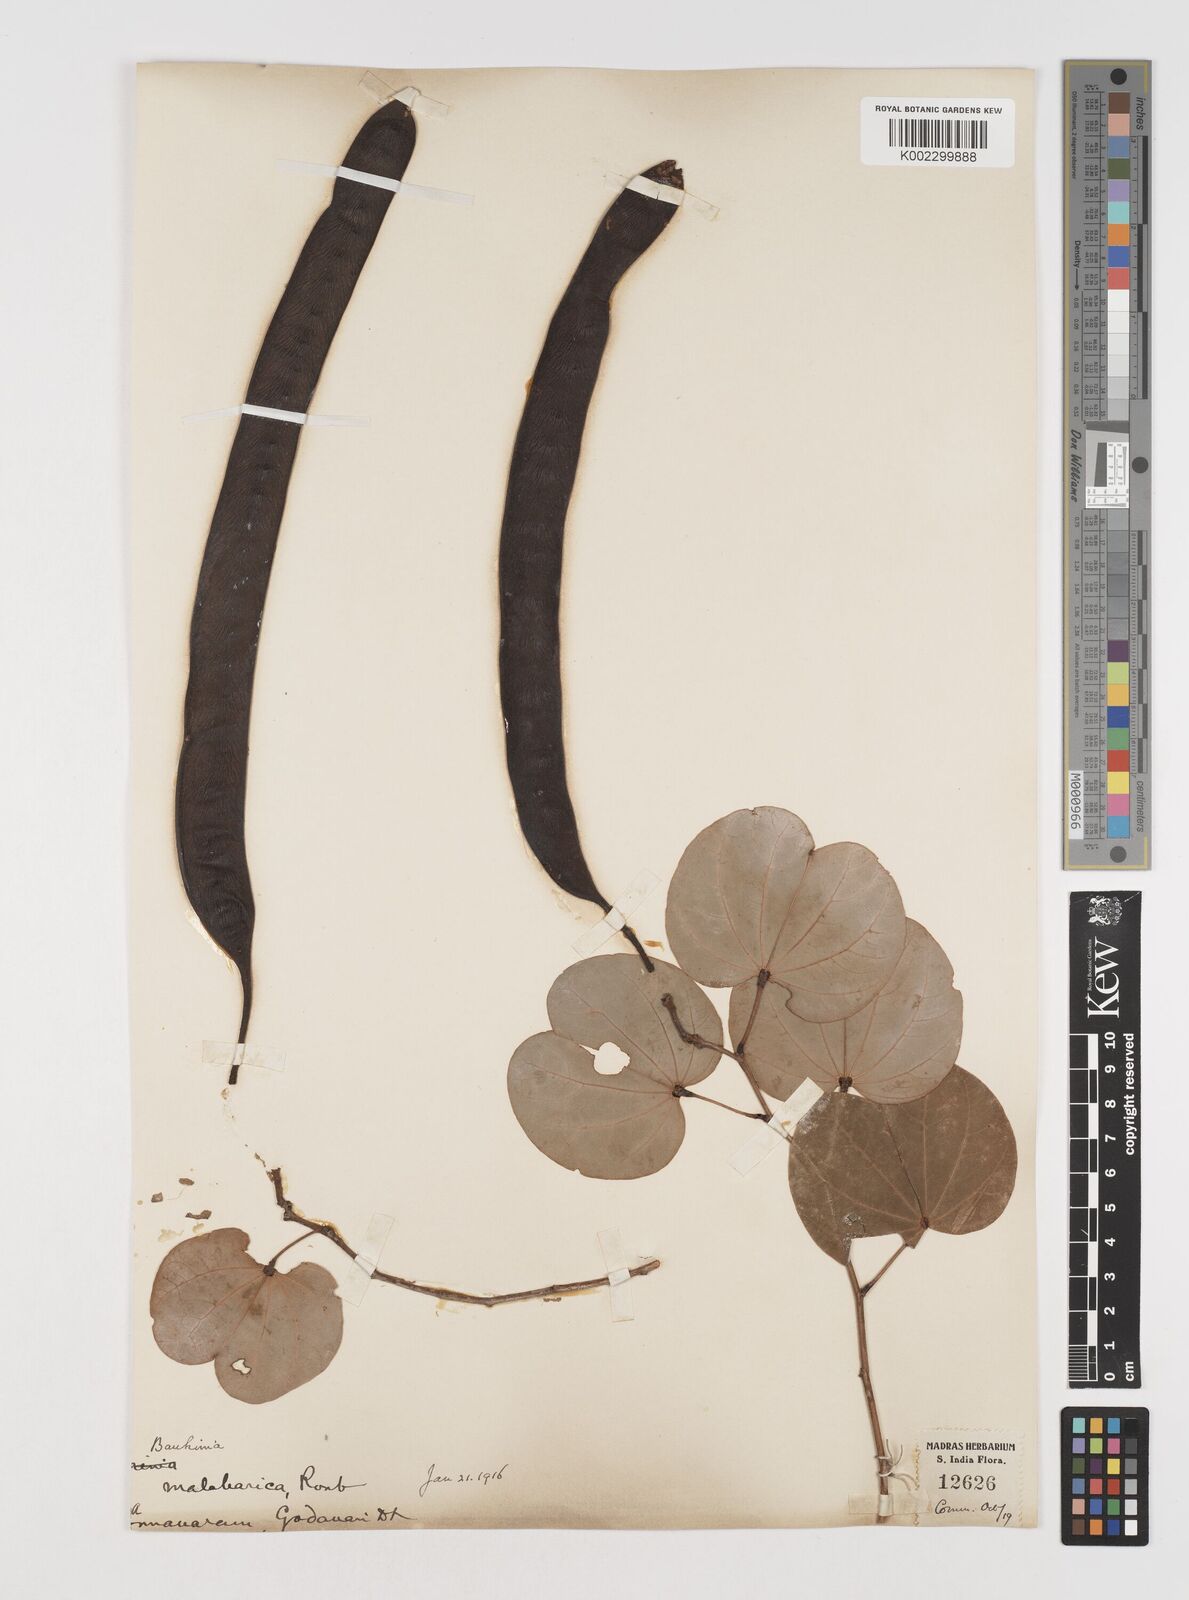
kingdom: Plantae
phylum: Tracheophyta
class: Magnoliopsida
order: Fabales
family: Fabaceae
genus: Piliostigma
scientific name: Piliostigma malabaricum
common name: Malabar bauhinia
